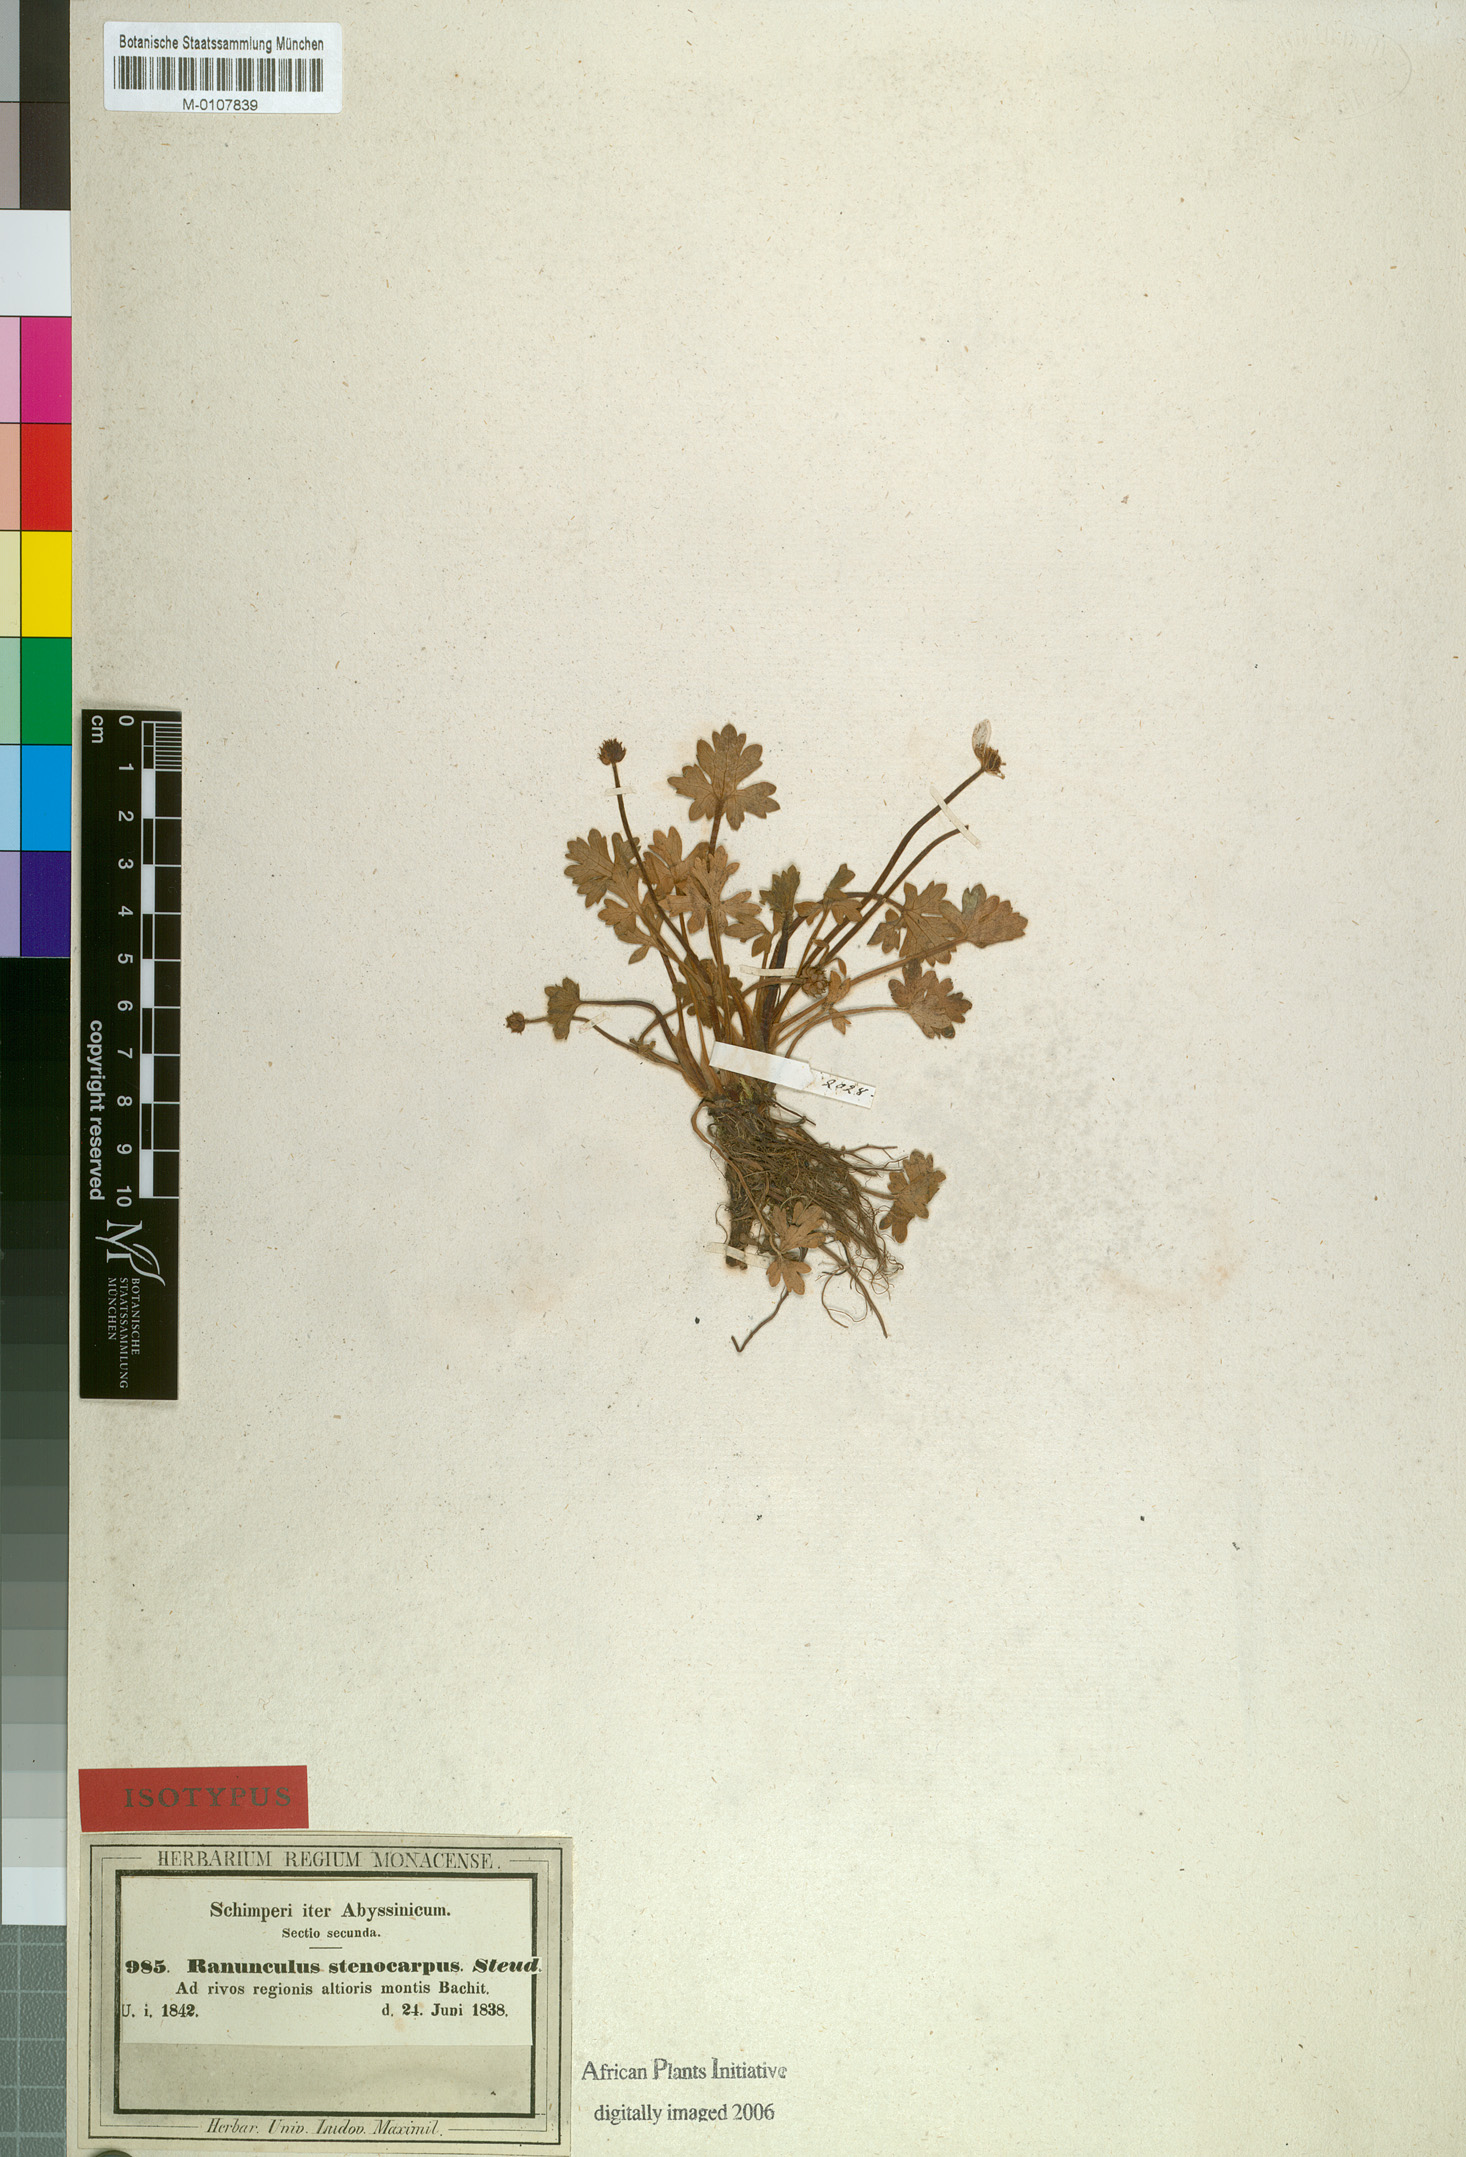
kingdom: Plantae
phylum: Tracheophyta
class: Magnoliopsida
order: Ranunculales
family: Ranunculaceae
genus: Ranunculus
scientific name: Ranunculus tembensis
